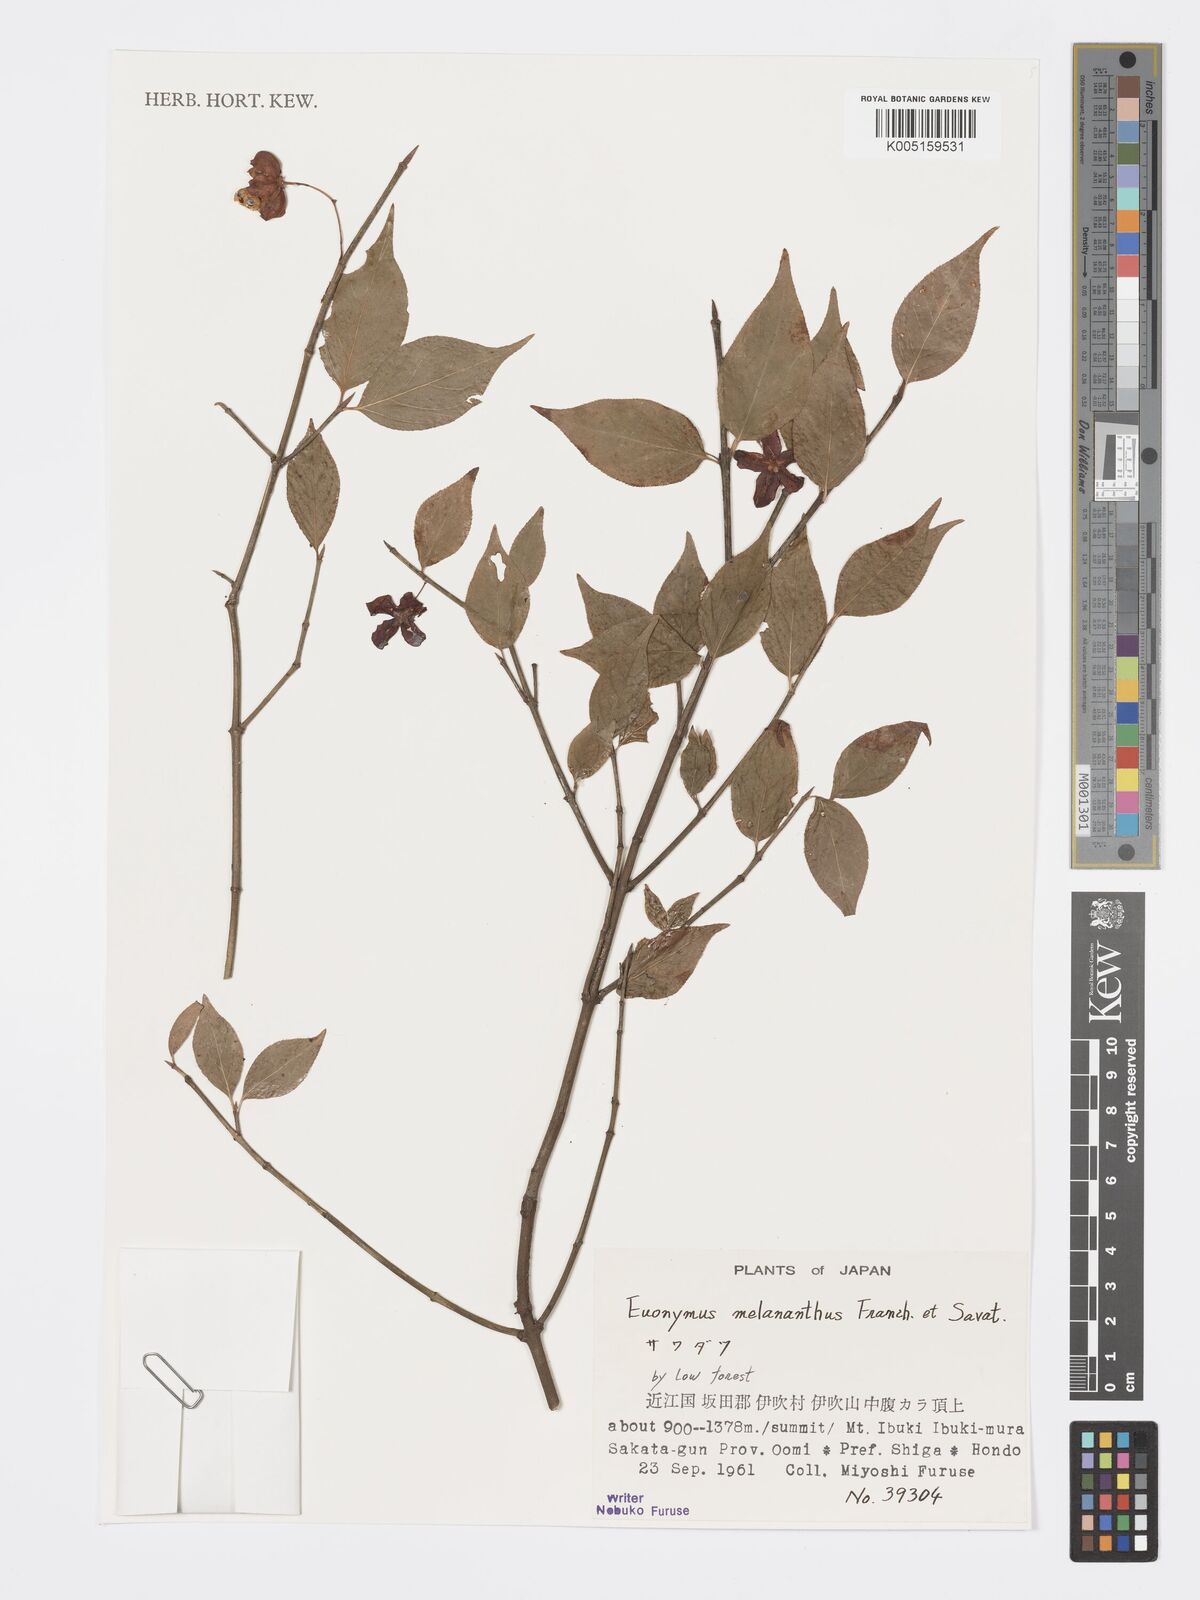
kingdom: Plantae
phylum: Tracheophyta
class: Magnoliopsida
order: Celastrales
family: Celastraceae
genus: Euonymus
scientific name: Euonymus melananthus
